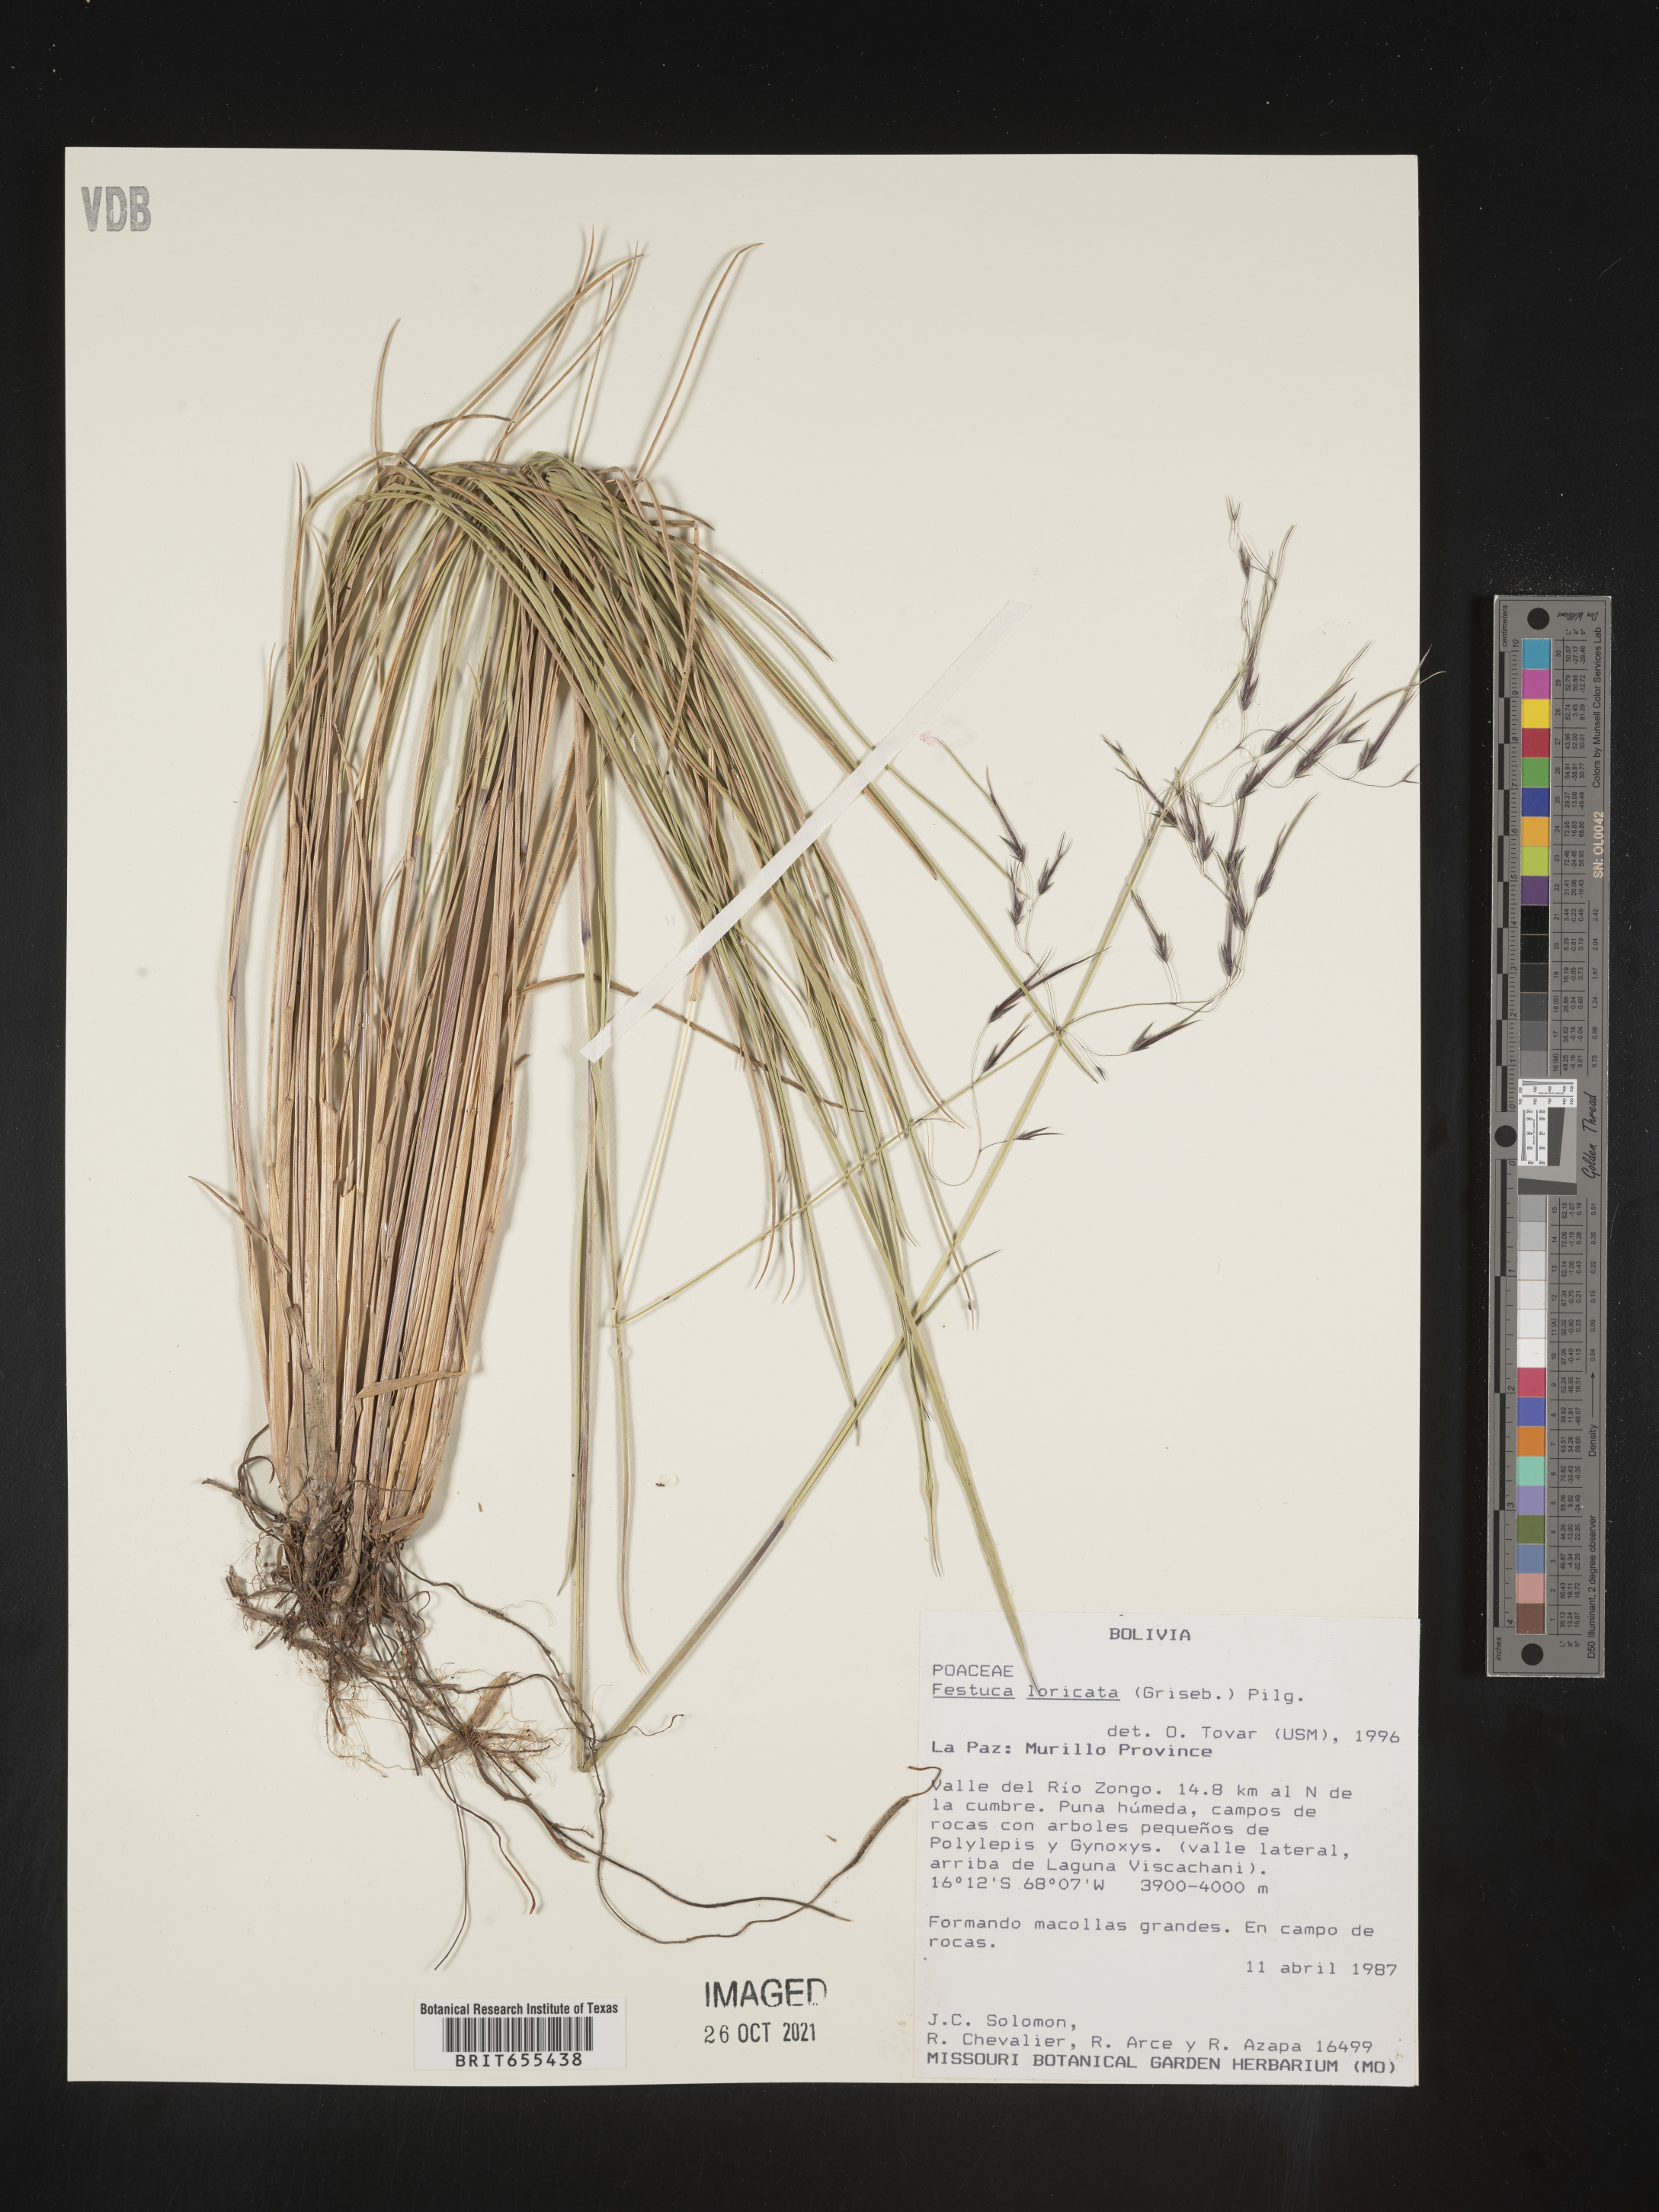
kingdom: Plantae
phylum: Tracheophyta
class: Liliopsida
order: Poales
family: Poaceae
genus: Festuca
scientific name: Festuca
